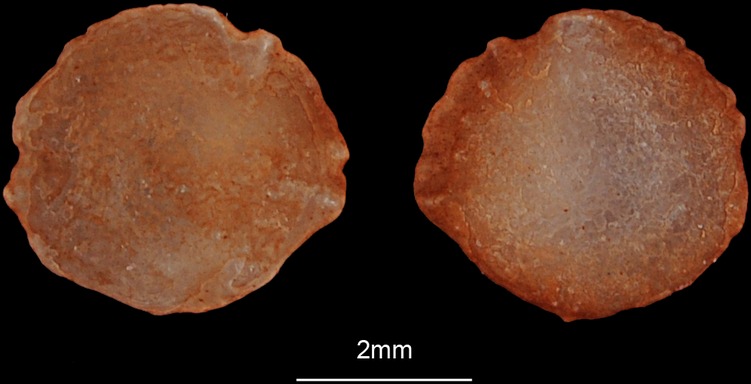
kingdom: Animalia
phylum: Chordata
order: Atheriniformes
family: Atherinidae
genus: Atherinomorus
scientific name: Atherinomorus lacunosus
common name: Hardyhead silverside
